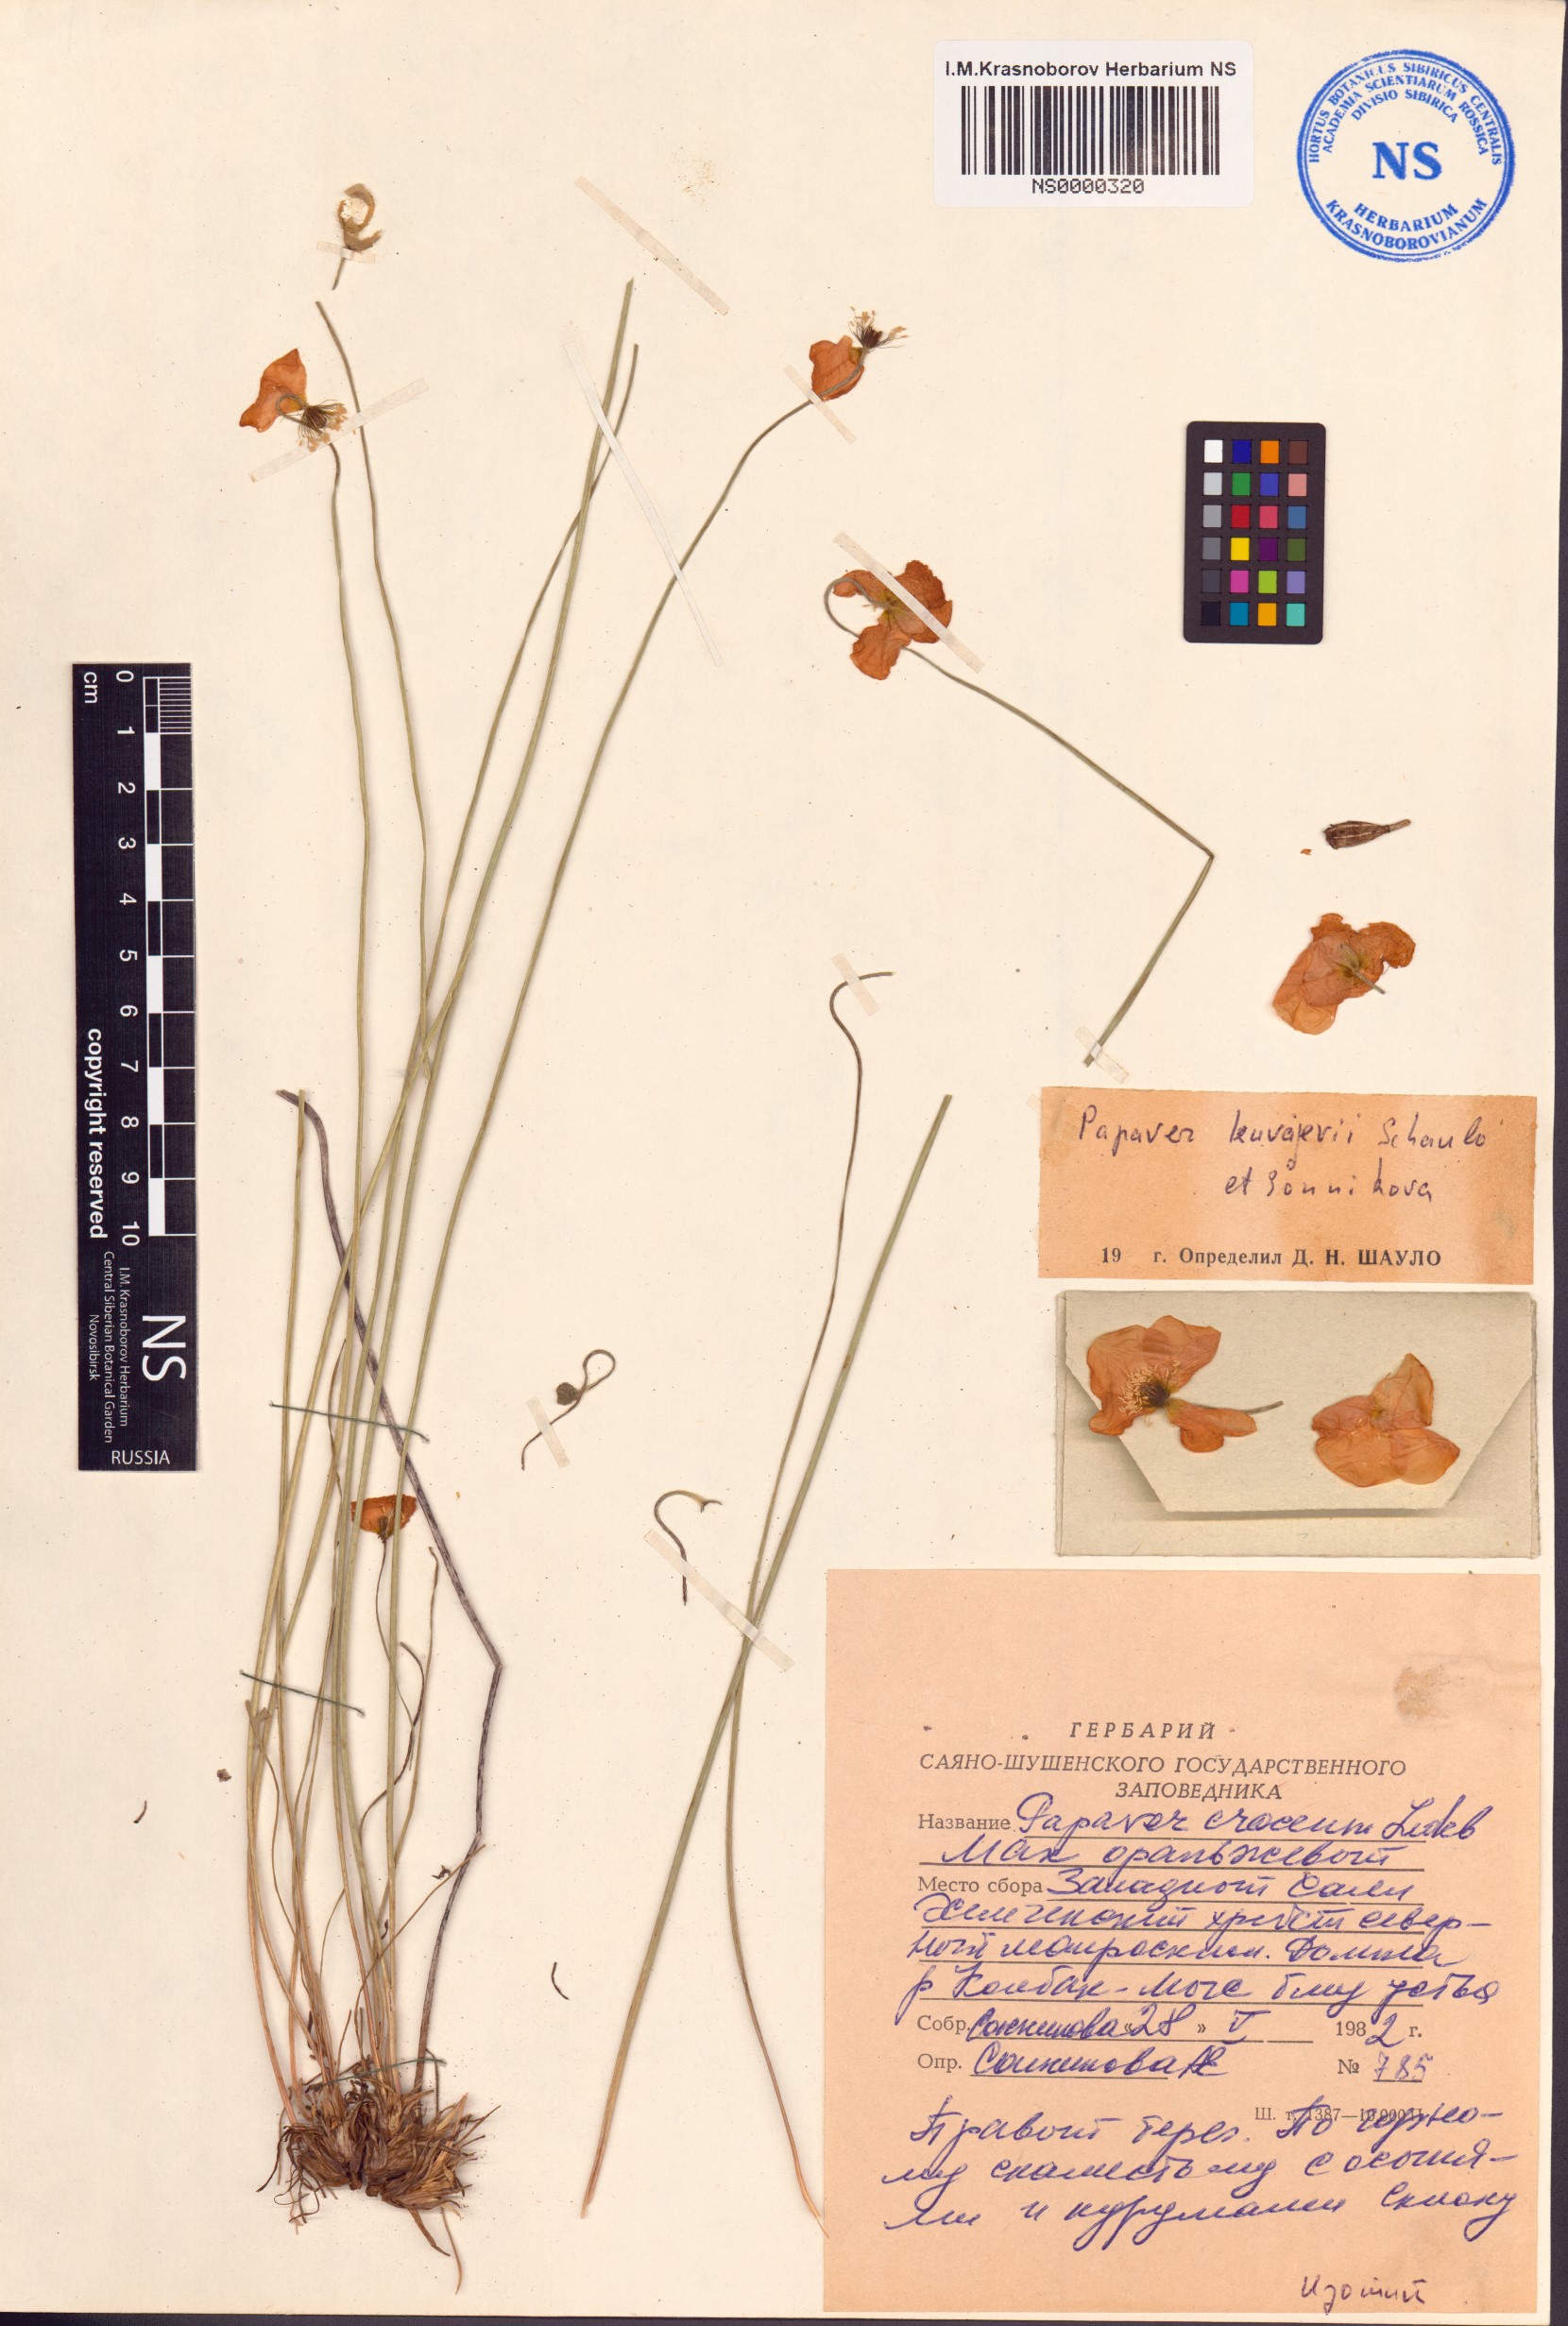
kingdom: Plantae
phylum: Tracheophyta
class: Magnoliopsida
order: Ranunculales
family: Papaveraceae
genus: Papaver
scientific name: Papaver kuvajevii
